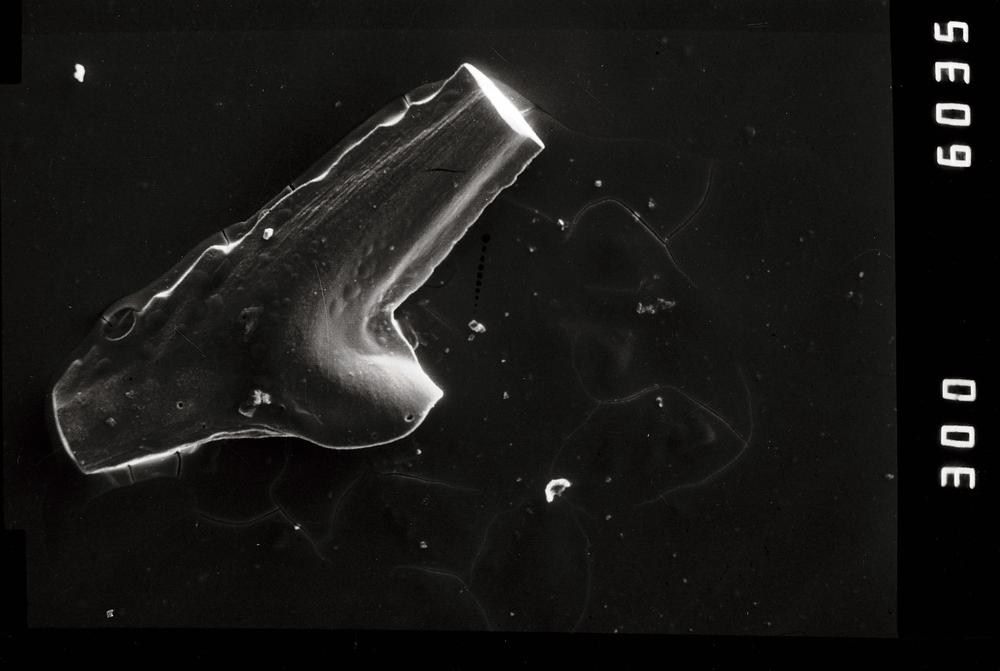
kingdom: Animalia
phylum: Chordata
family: Balognathidae
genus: Prioniodus
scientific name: Prioniodus
